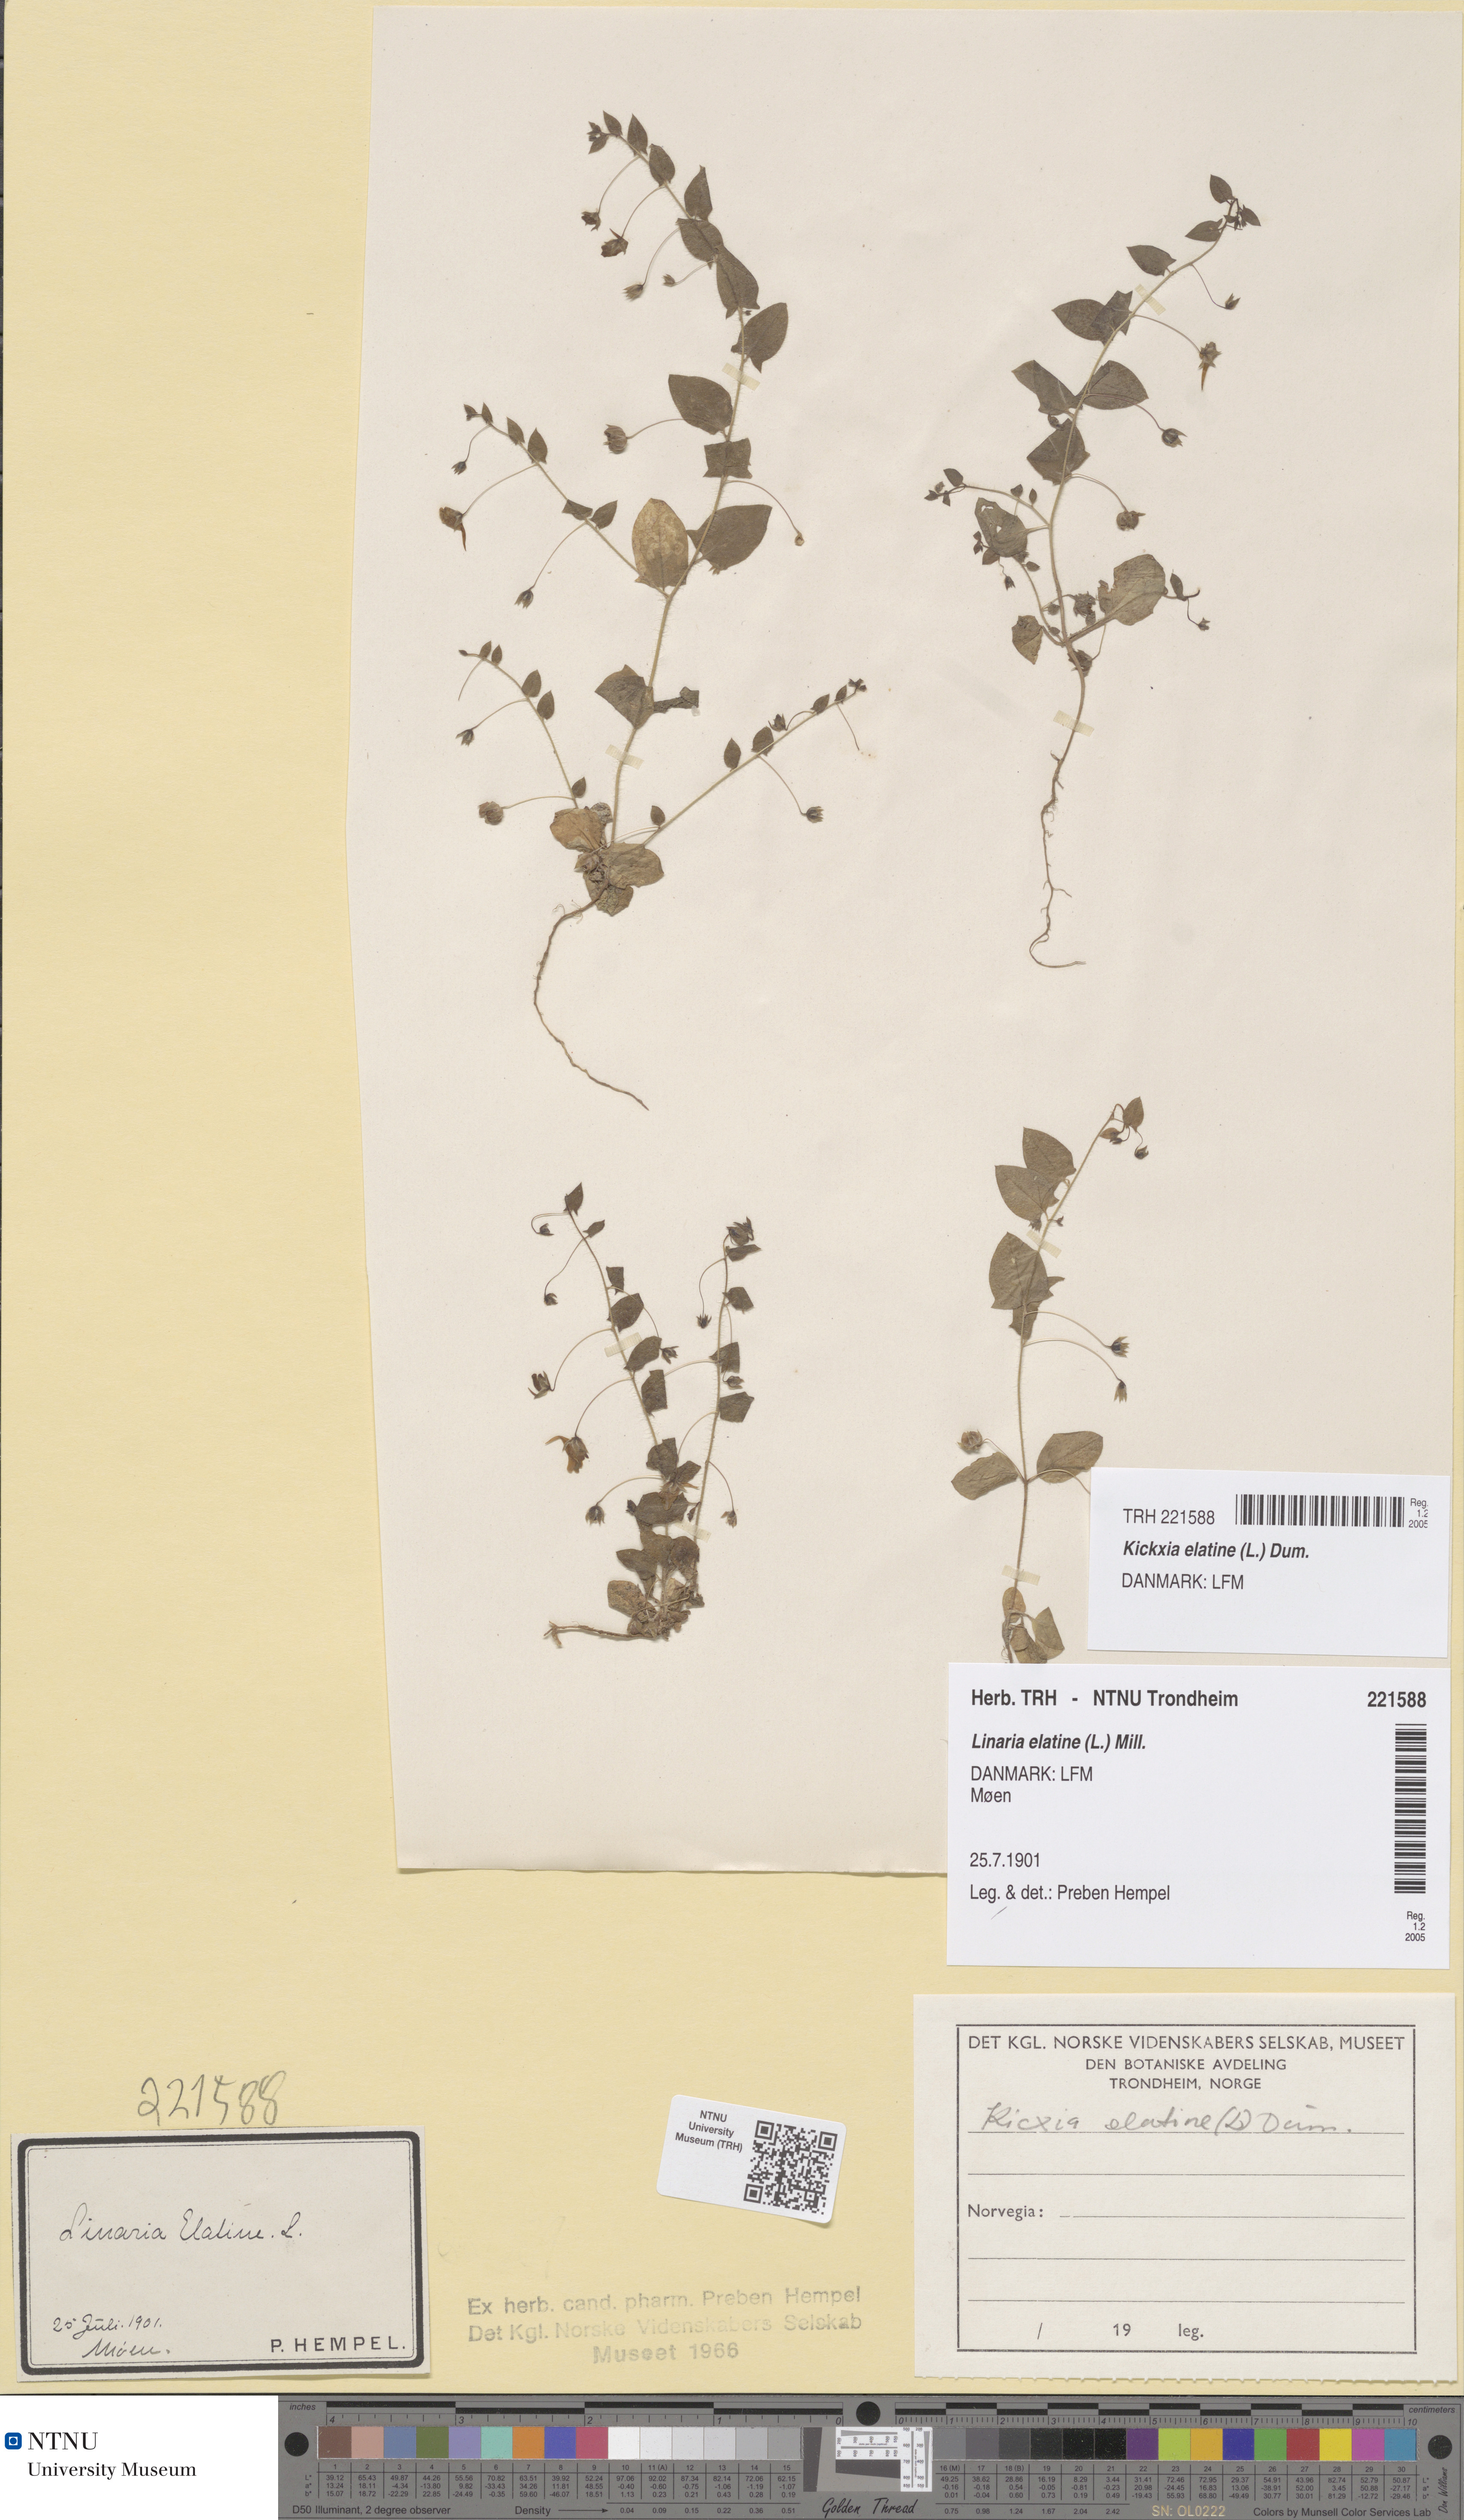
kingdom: Plantae
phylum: Tracheophyta
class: Magnoliopsida
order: Lamiales
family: Plantaginaceae
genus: Kickxia
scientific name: Kickxia elatine
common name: Sharp-leaved fluellen
